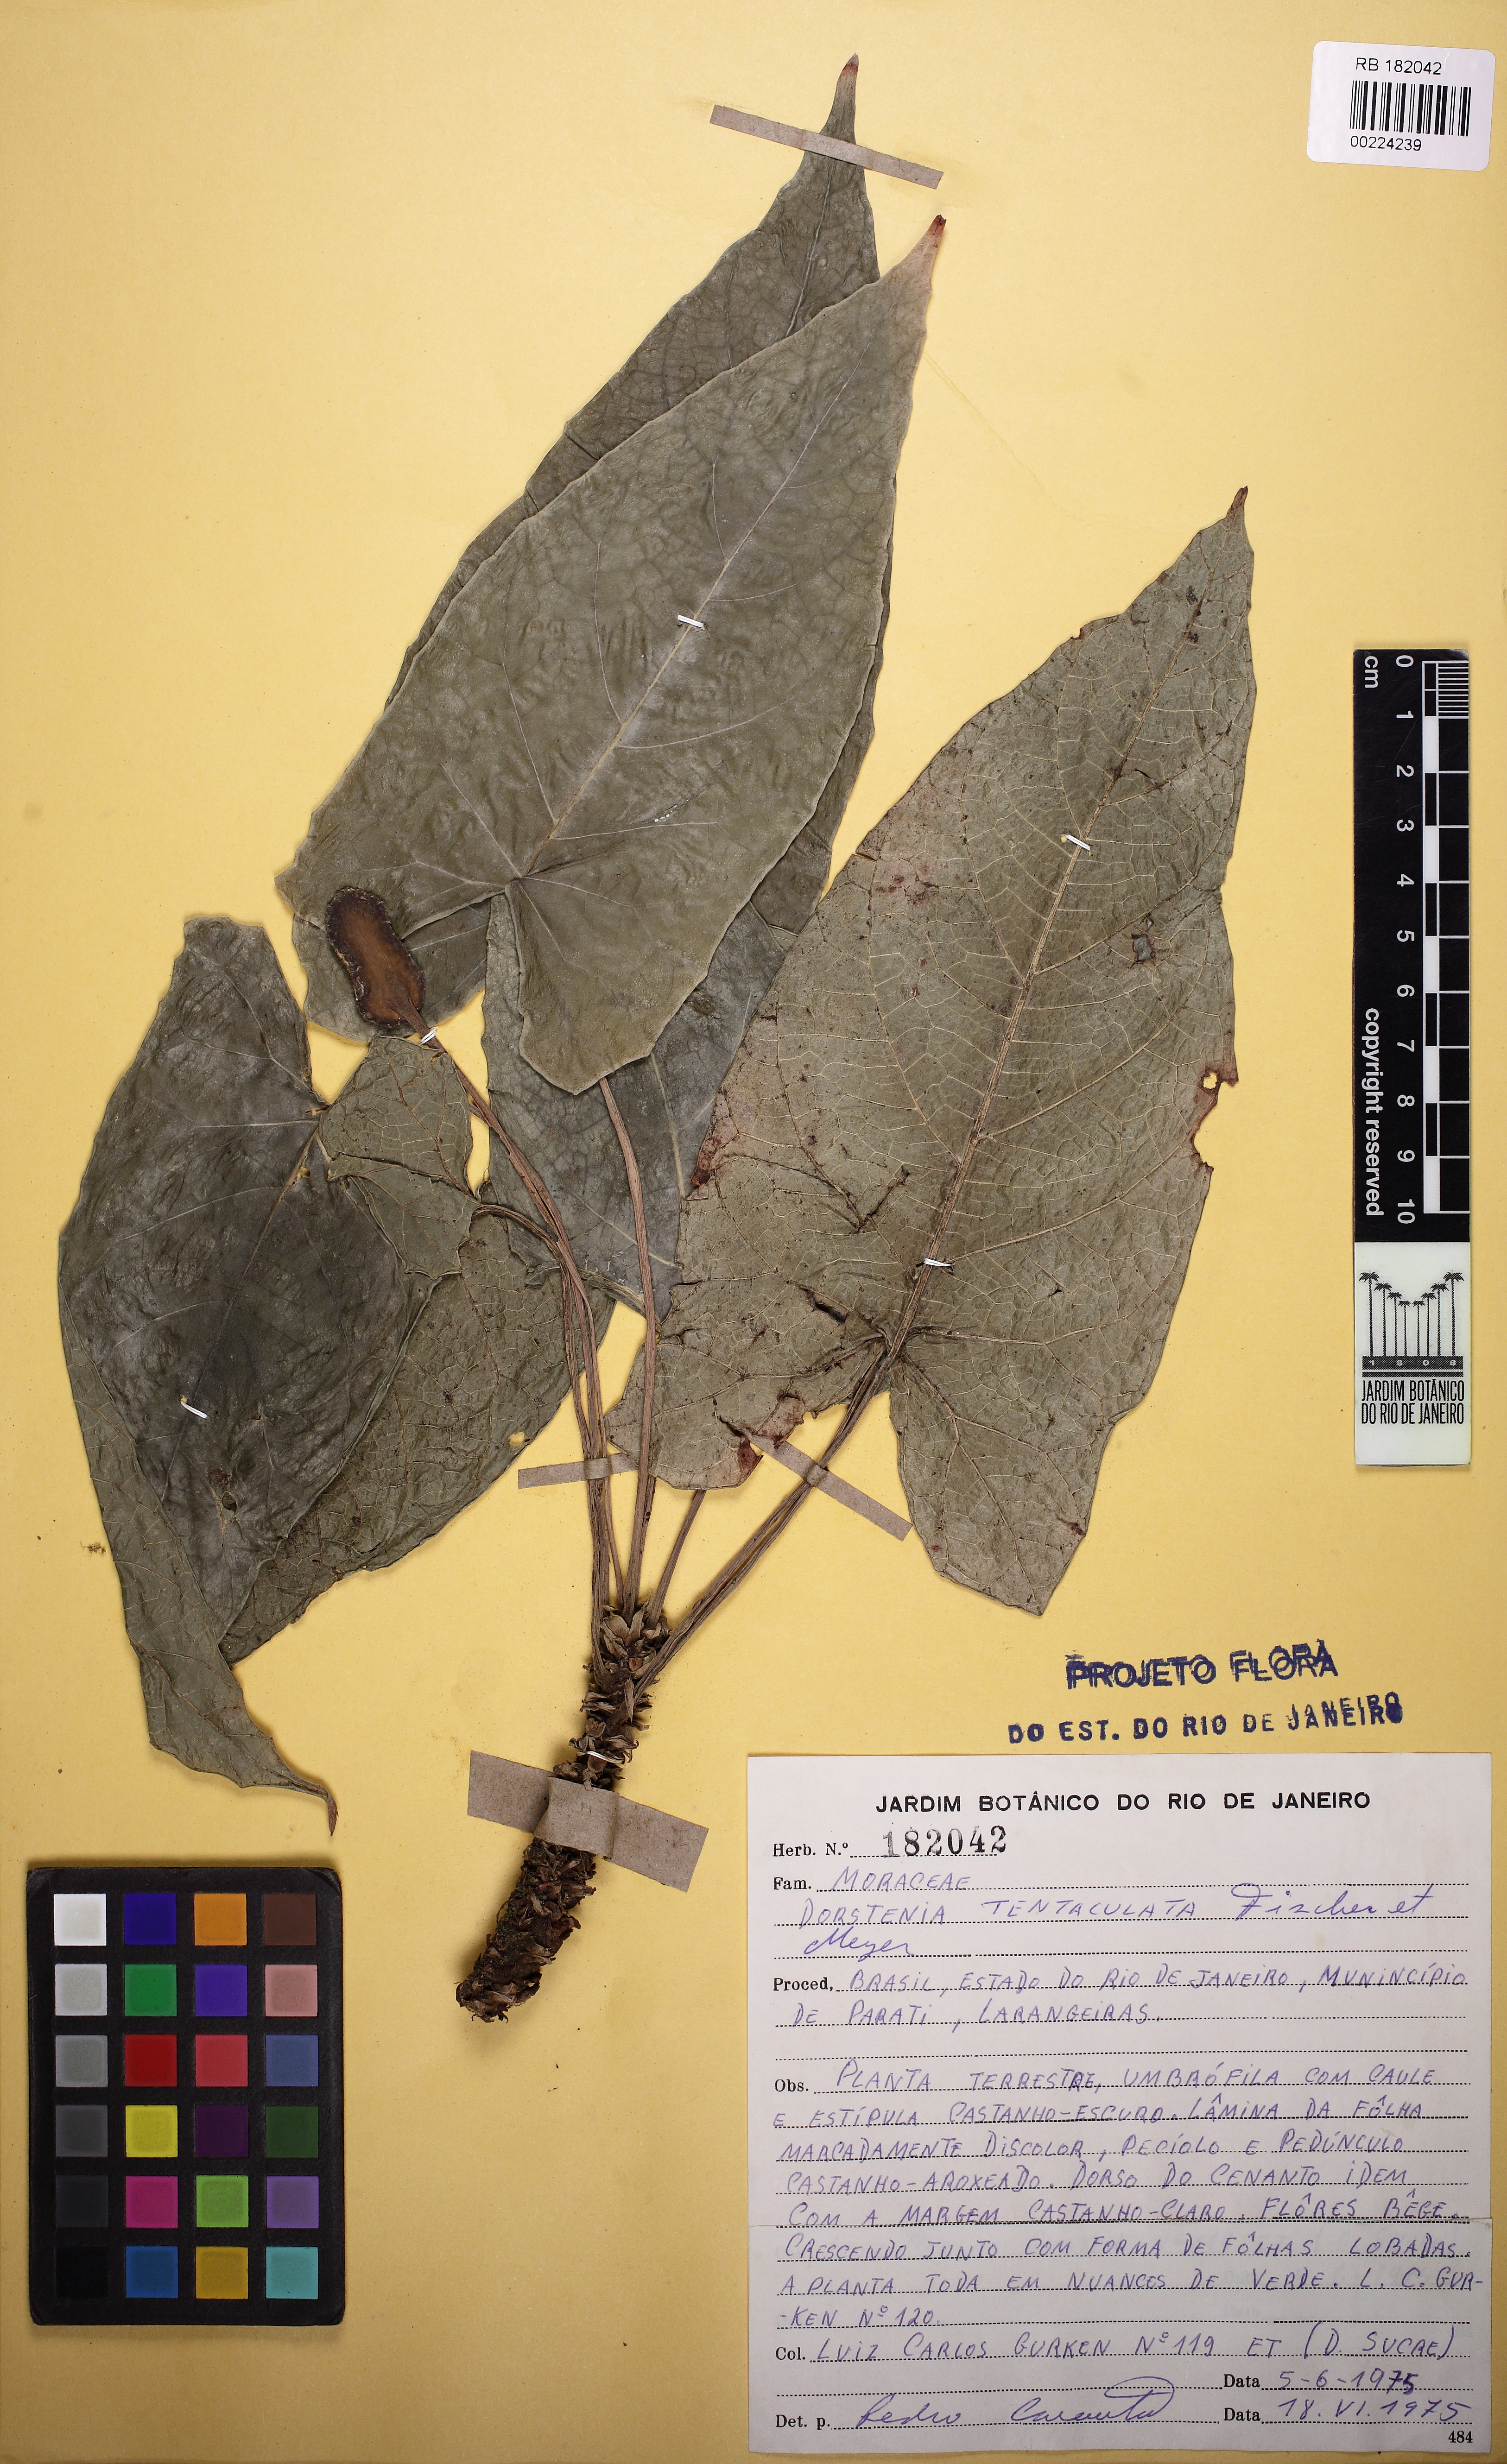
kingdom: Plantae
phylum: Tracheophyta
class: Magnoliopsida
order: Rosales
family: Moraceae
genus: Dorstenia
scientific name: Dorstenia arifolia
